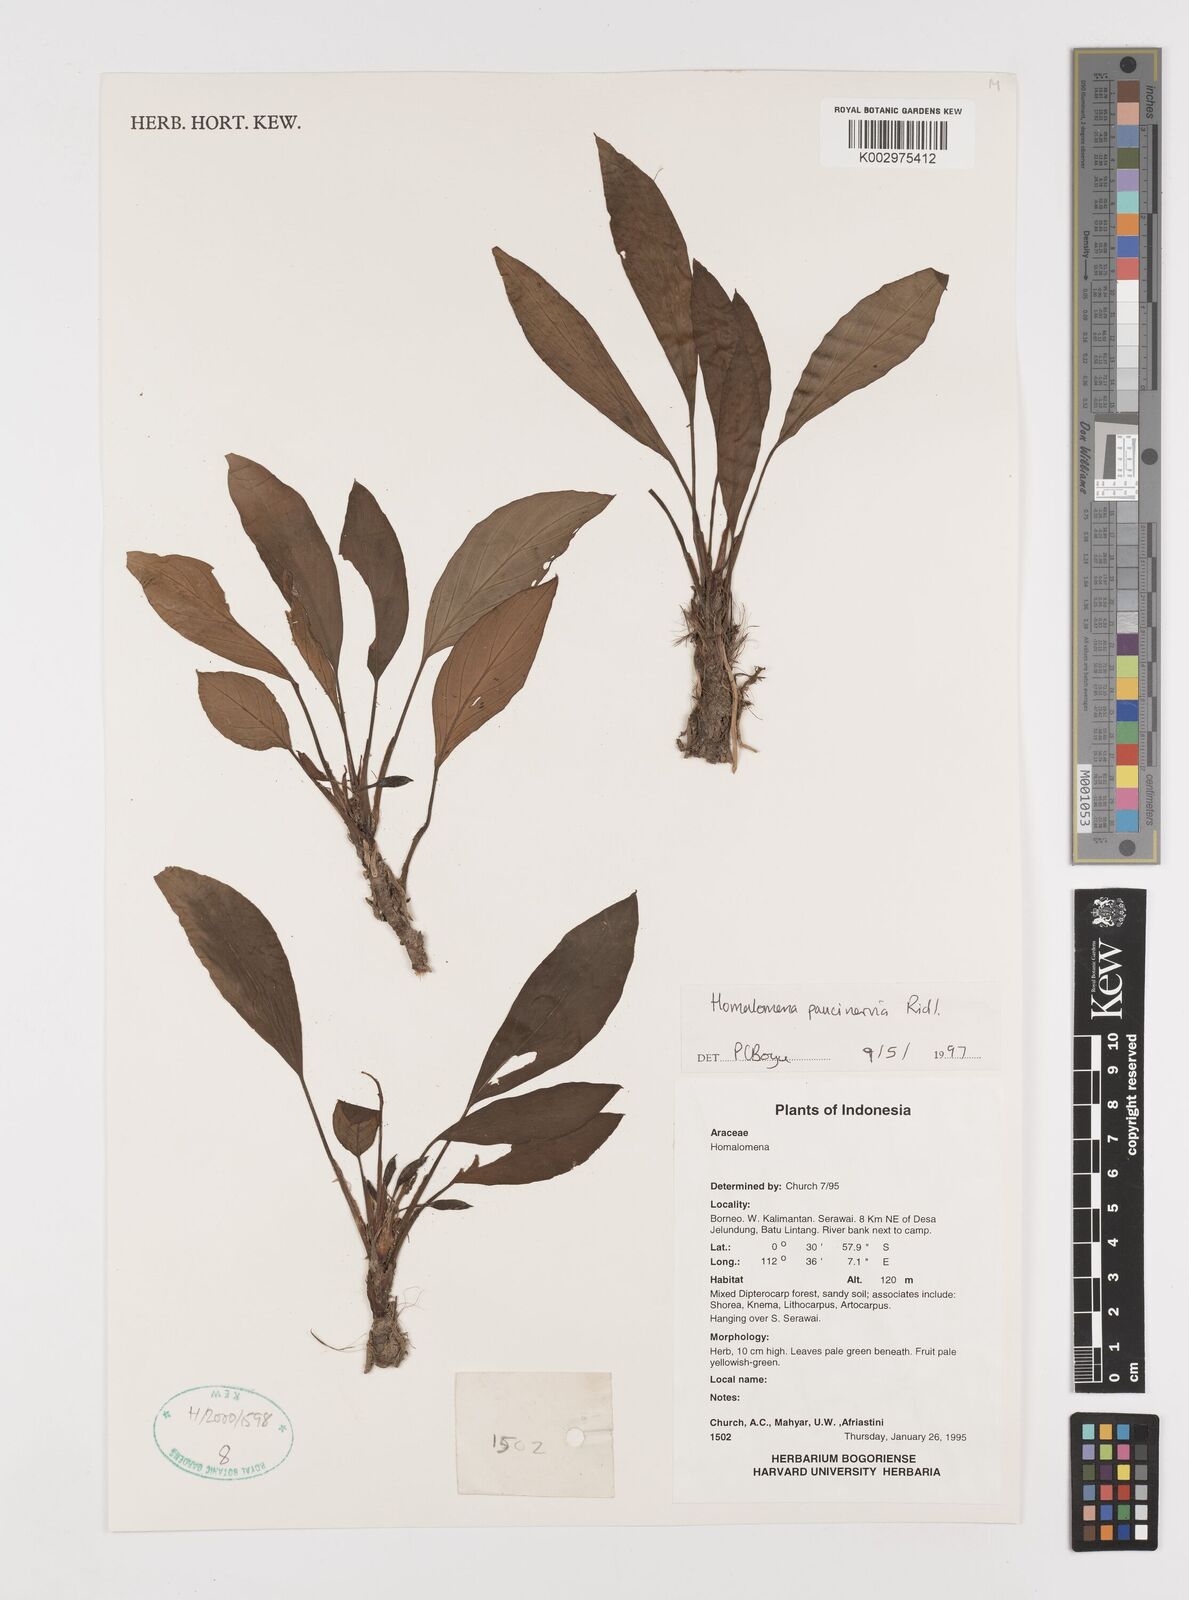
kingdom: Plantae
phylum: Tracheophyta
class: Liliopsida
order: Alismatales
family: Araceae
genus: Homalomena
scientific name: Homalomena consobrina
